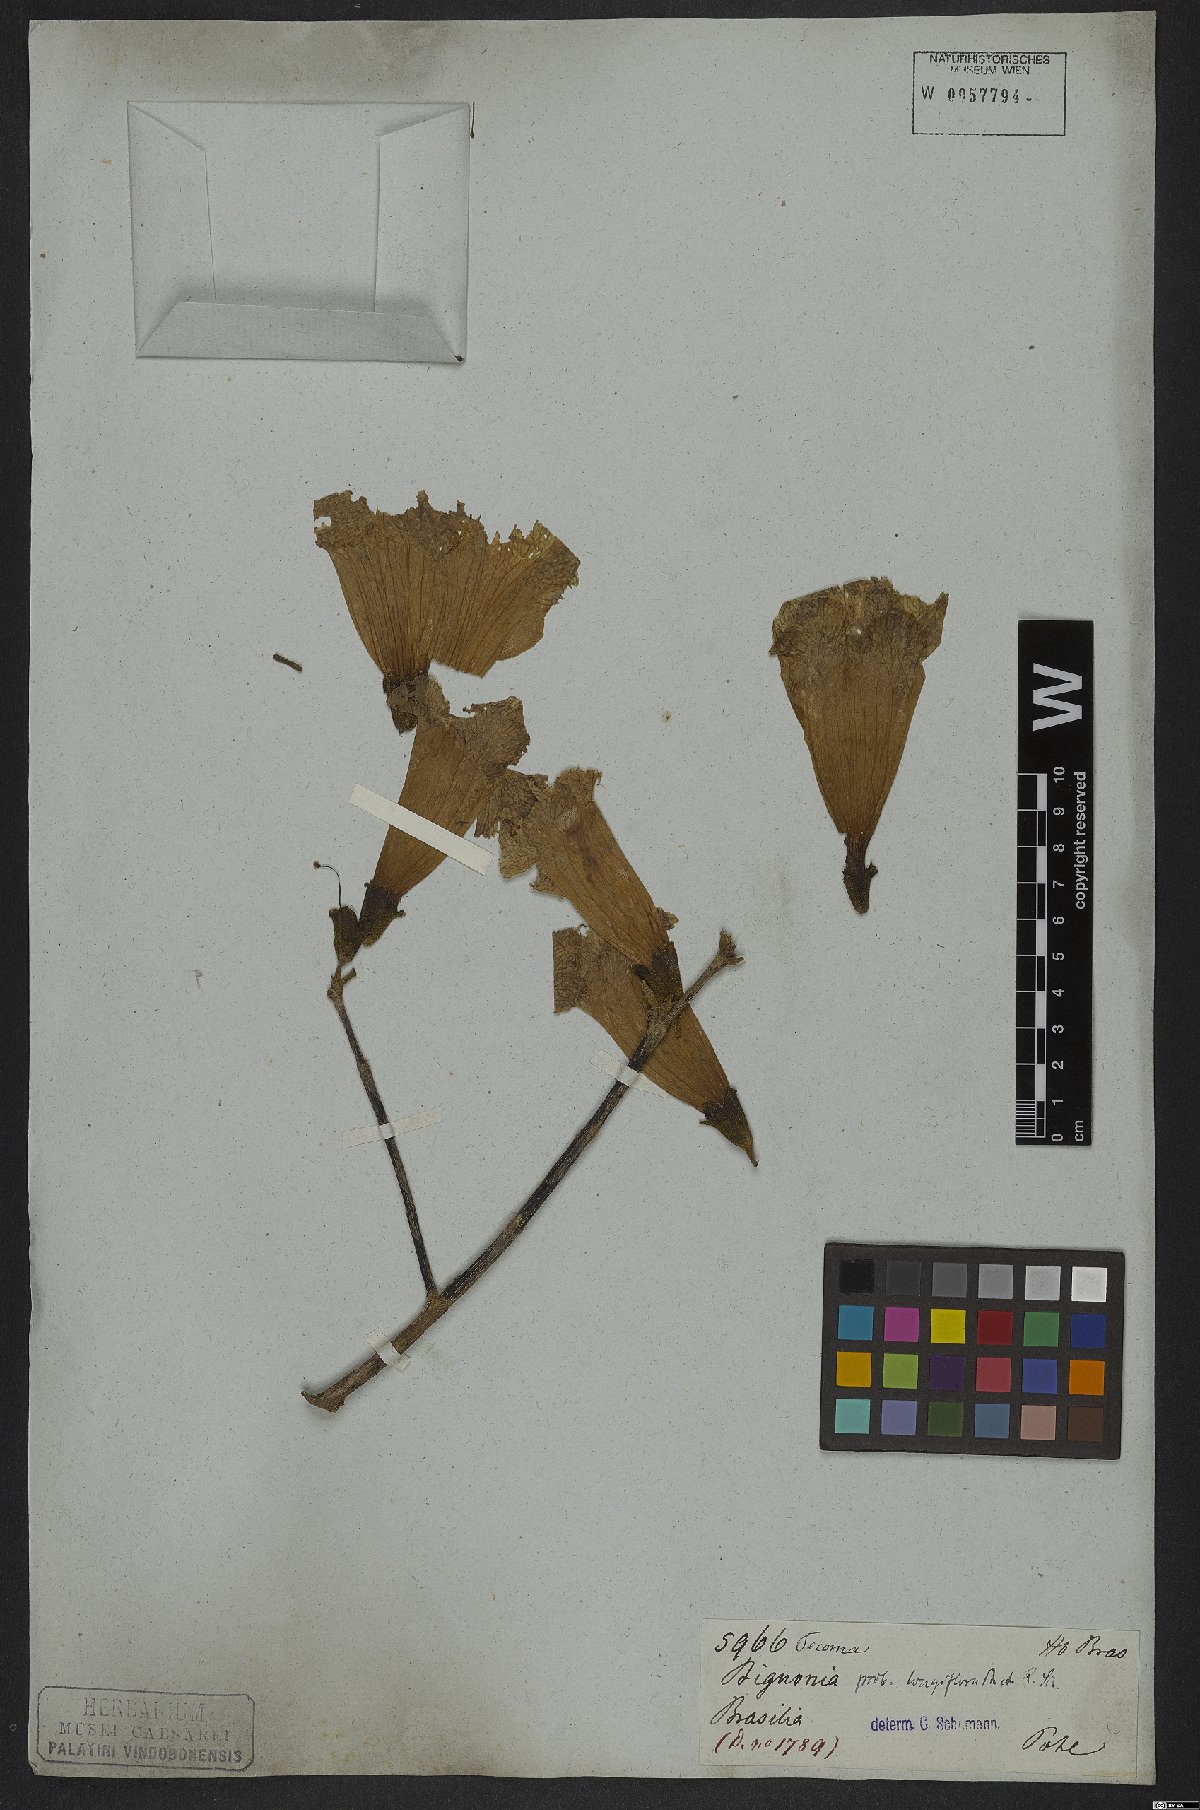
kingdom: Plantae
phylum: Tracheophyta
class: Magnoliopsida
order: Lamiales
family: Bignoniaceae
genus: Handroanthus
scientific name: Handroanthus vellosoi
